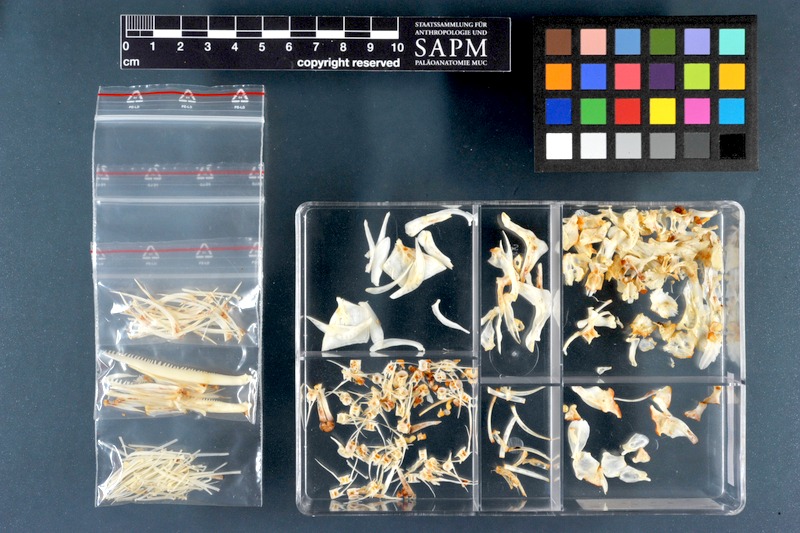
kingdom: Animalia
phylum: Chordata
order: Cypriniformes
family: Cyprinidae
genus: Luciobarbus
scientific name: Luciobarbus kersin
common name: Berzem
